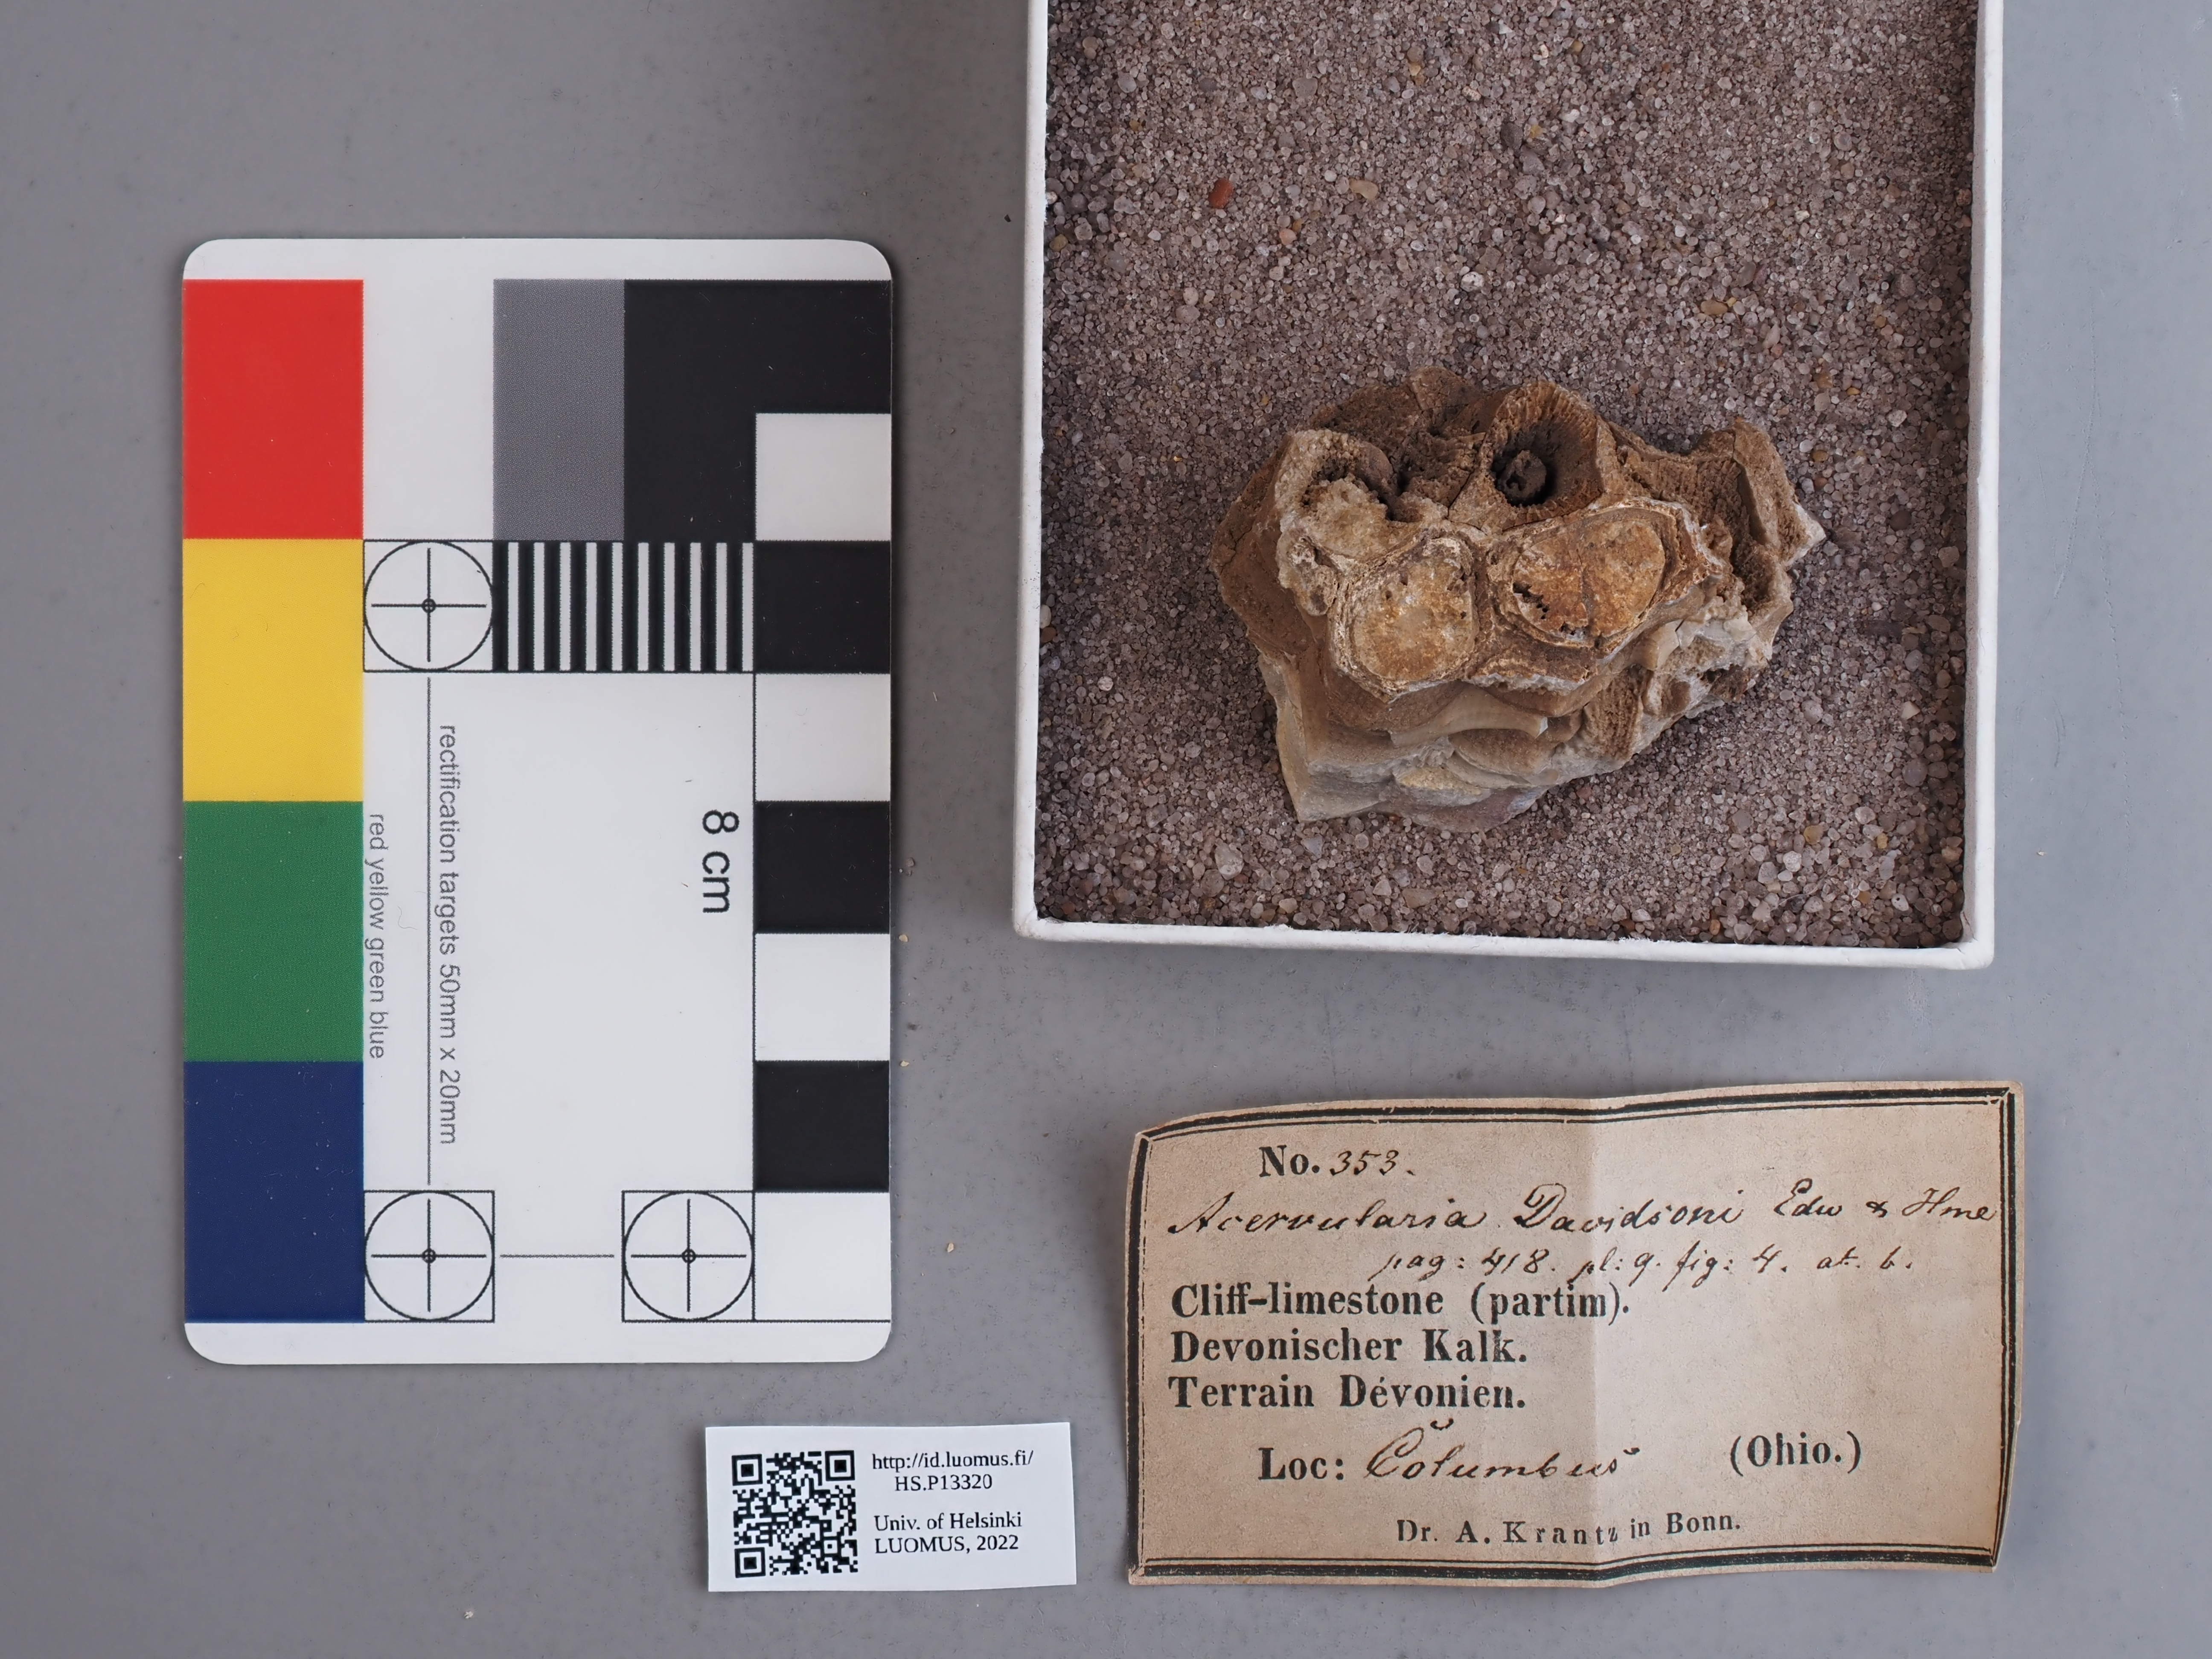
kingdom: Animalia
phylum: Cnidaria
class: Anthozoa
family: Disphyllidae
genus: Hexagonaria
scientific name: Hexagonaria Acervularia davidsoni
